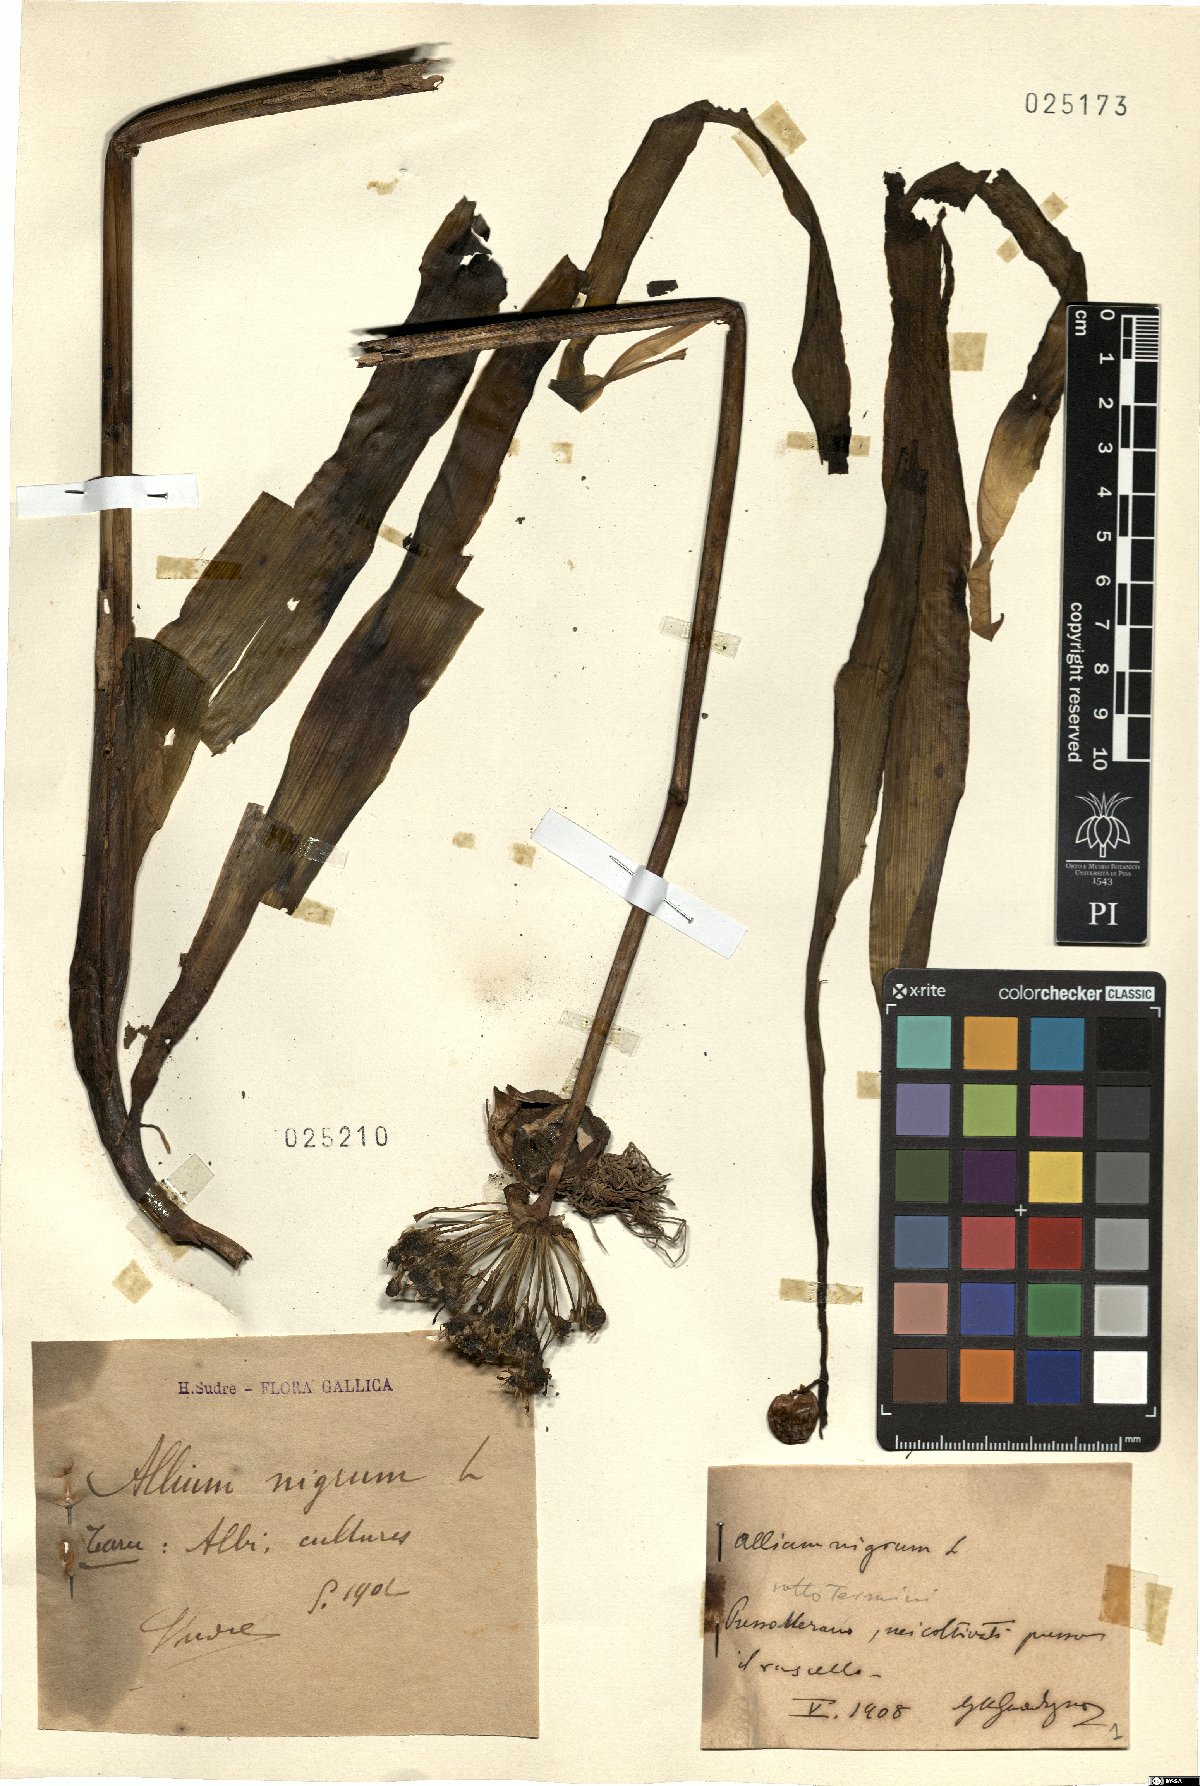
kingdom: Plantae
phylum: Tracheophyta
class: Liliopsida
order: Asparagales
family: Amaryllidaceae
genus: Allium
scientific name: Allium nigrum
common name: Black garlic
